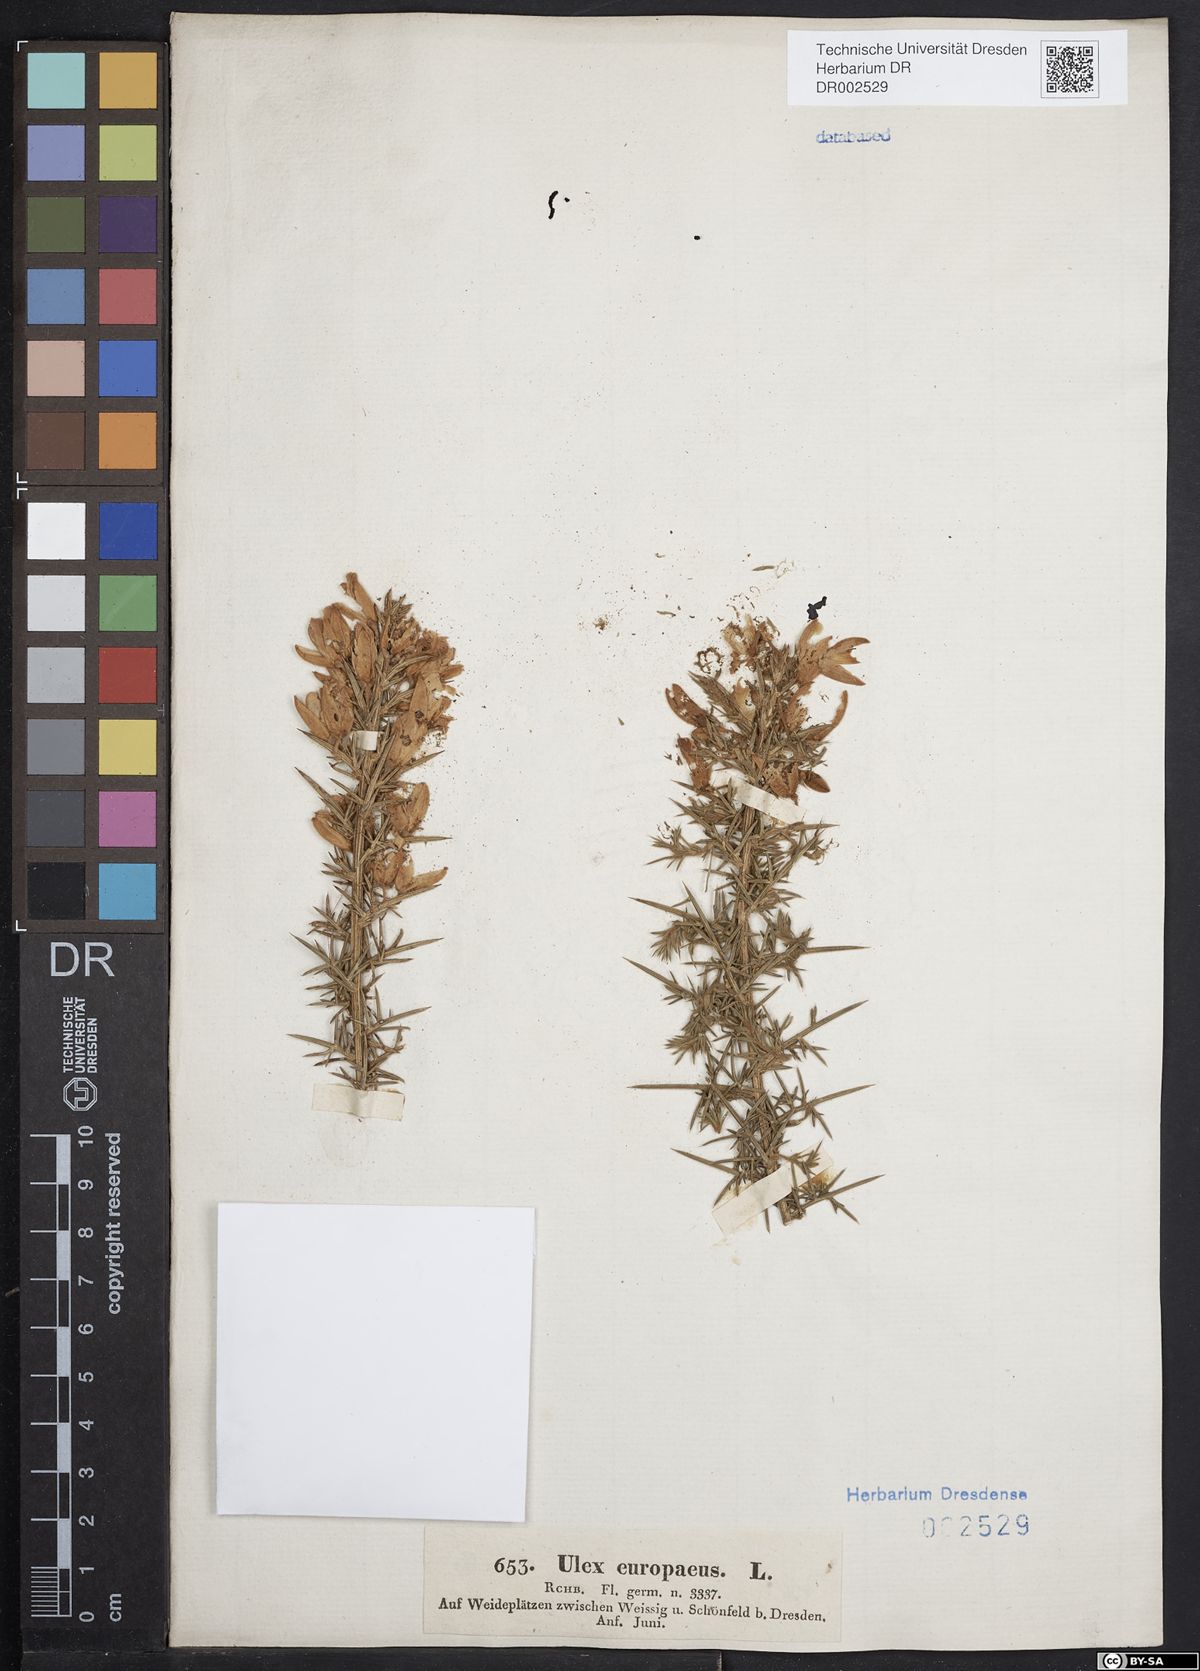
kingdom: Plantae
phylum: Tracheophyta
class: Magnoliopsida
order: Fabales
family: Fabaceae
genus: Ulex
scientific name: Ulex europaeus
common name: Common gorse
